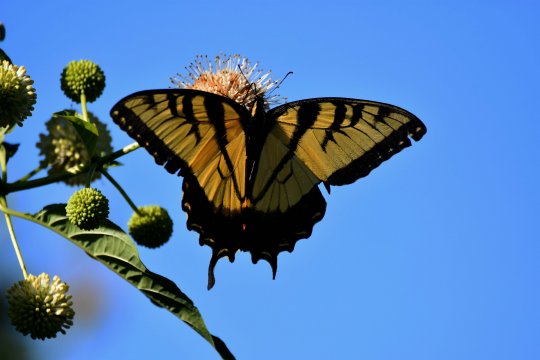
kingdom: Animalia
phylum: Arthropoda
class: Insecta
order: Lepidoptera
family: Papilionidae
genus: Pterourus
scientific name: Pterourus glaucus
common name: Eastern Tiger Swallowtail
